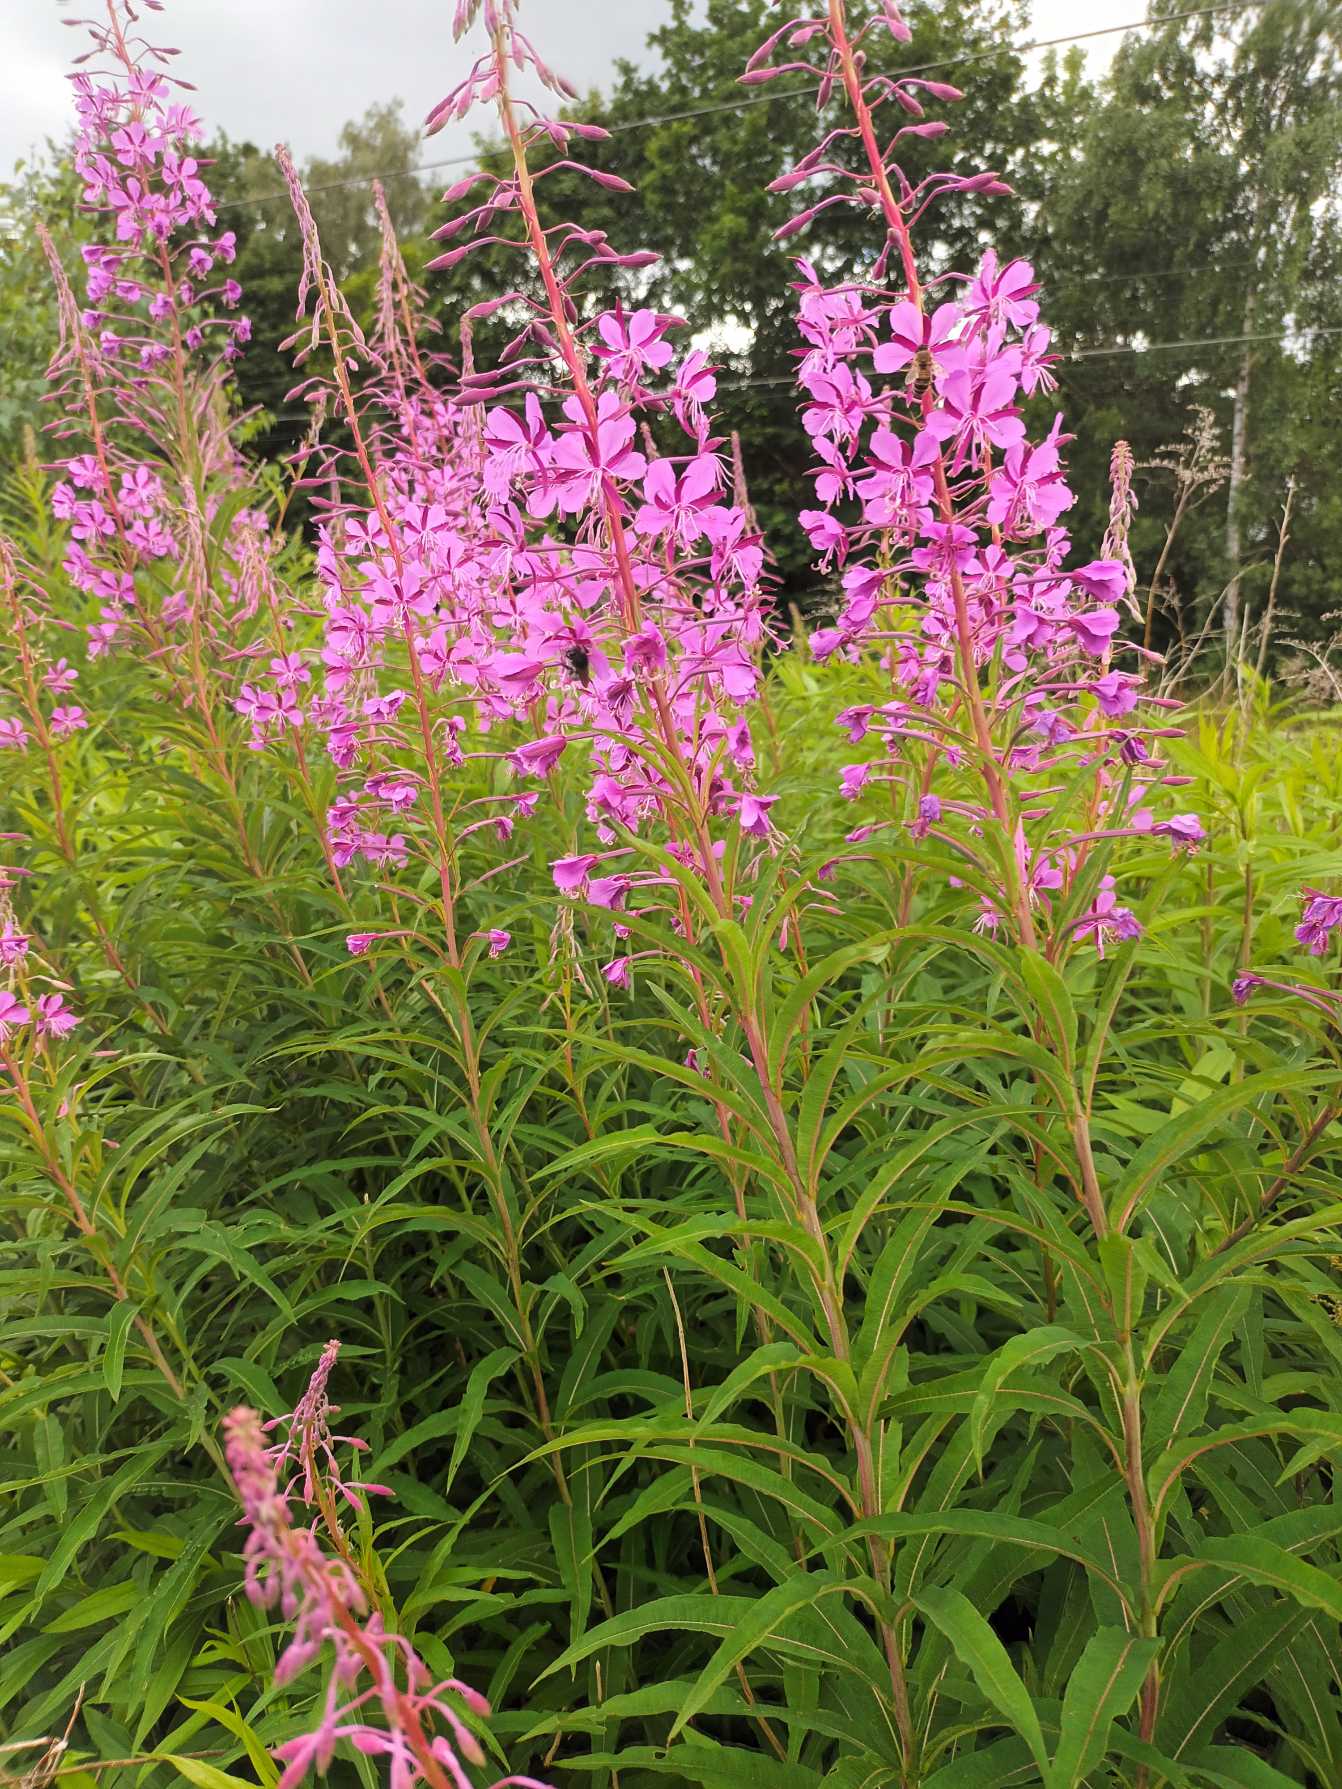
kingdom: Plantae
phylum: Tracheophyta
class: Magnoliopsida
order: Myrtales
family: Onagraceae
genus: Chamaenerion
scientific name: Chamaenerion angustifolium
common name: Gederams
